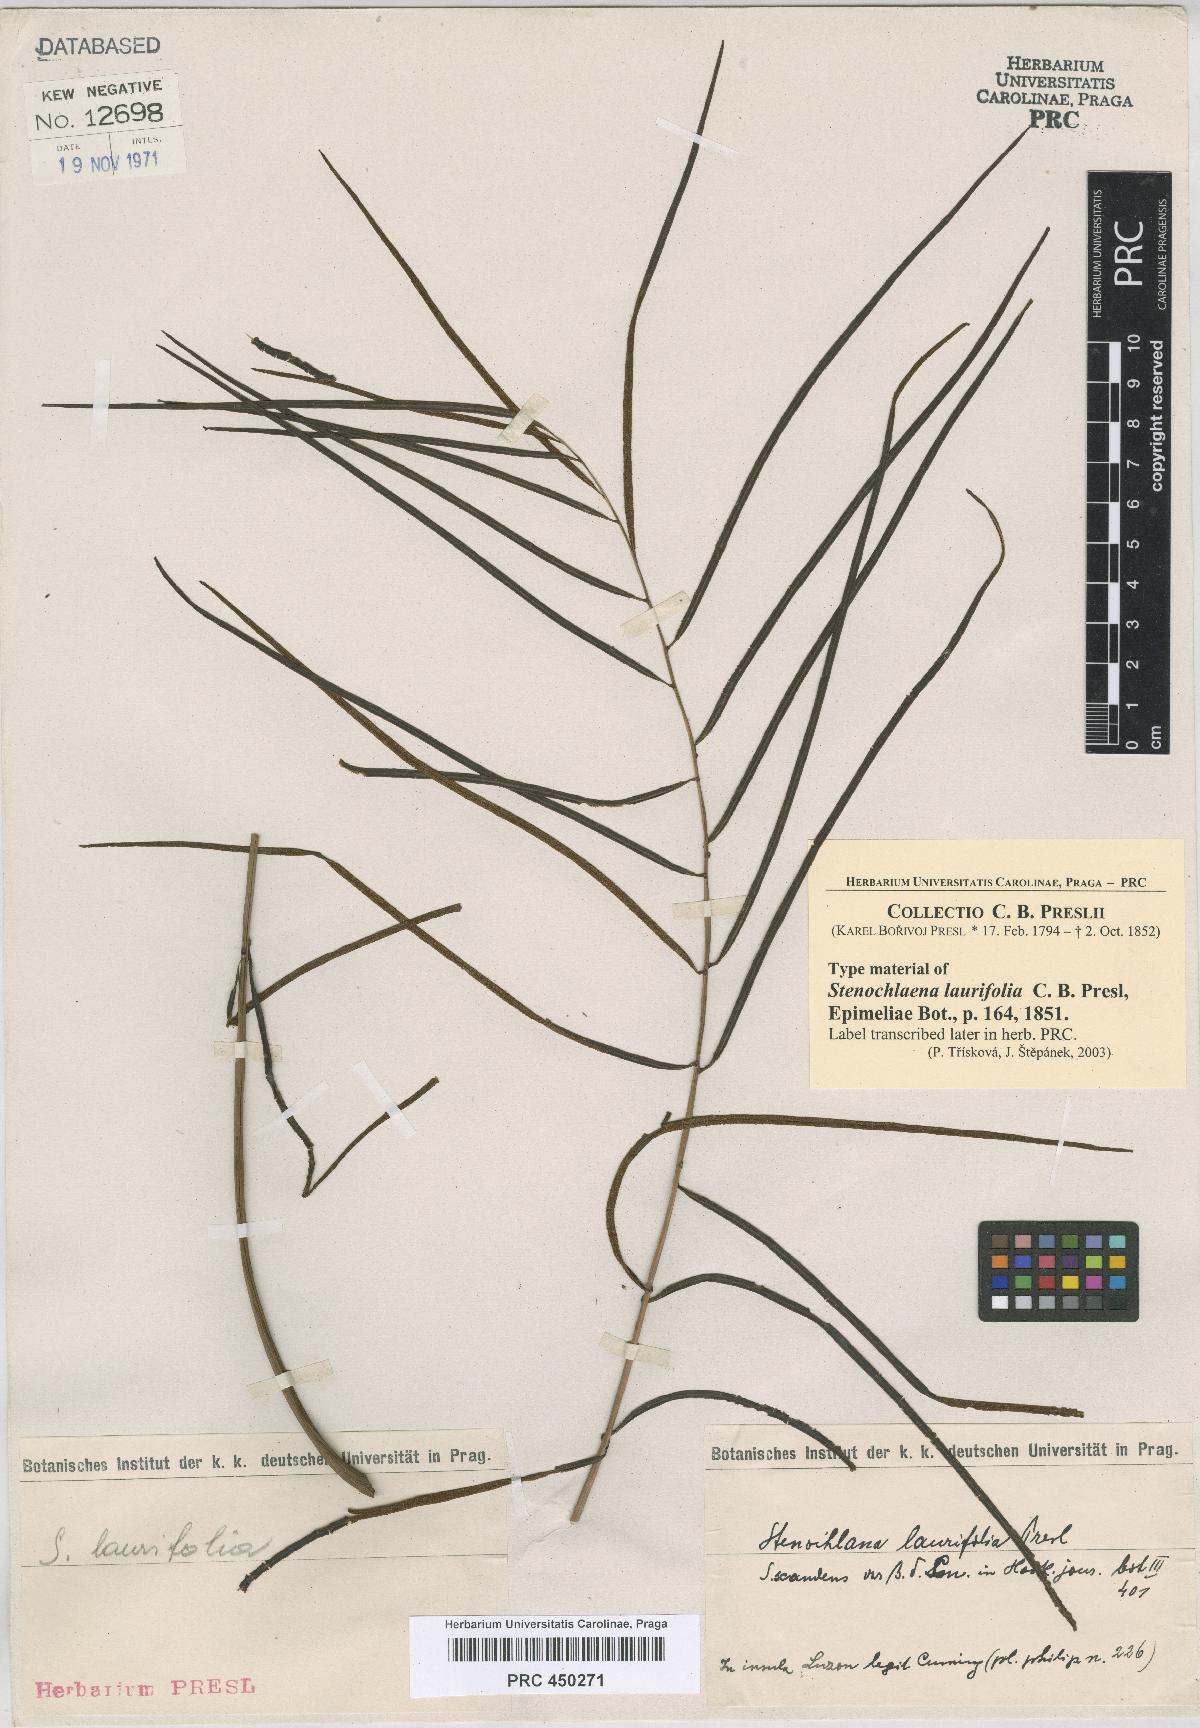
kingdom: Plantae
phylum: Tracheophyta
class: Polypodiopsida
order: Polypodiales
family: Blechnaceae
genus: Stenochlaena
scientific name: Stenochlaena palustris
